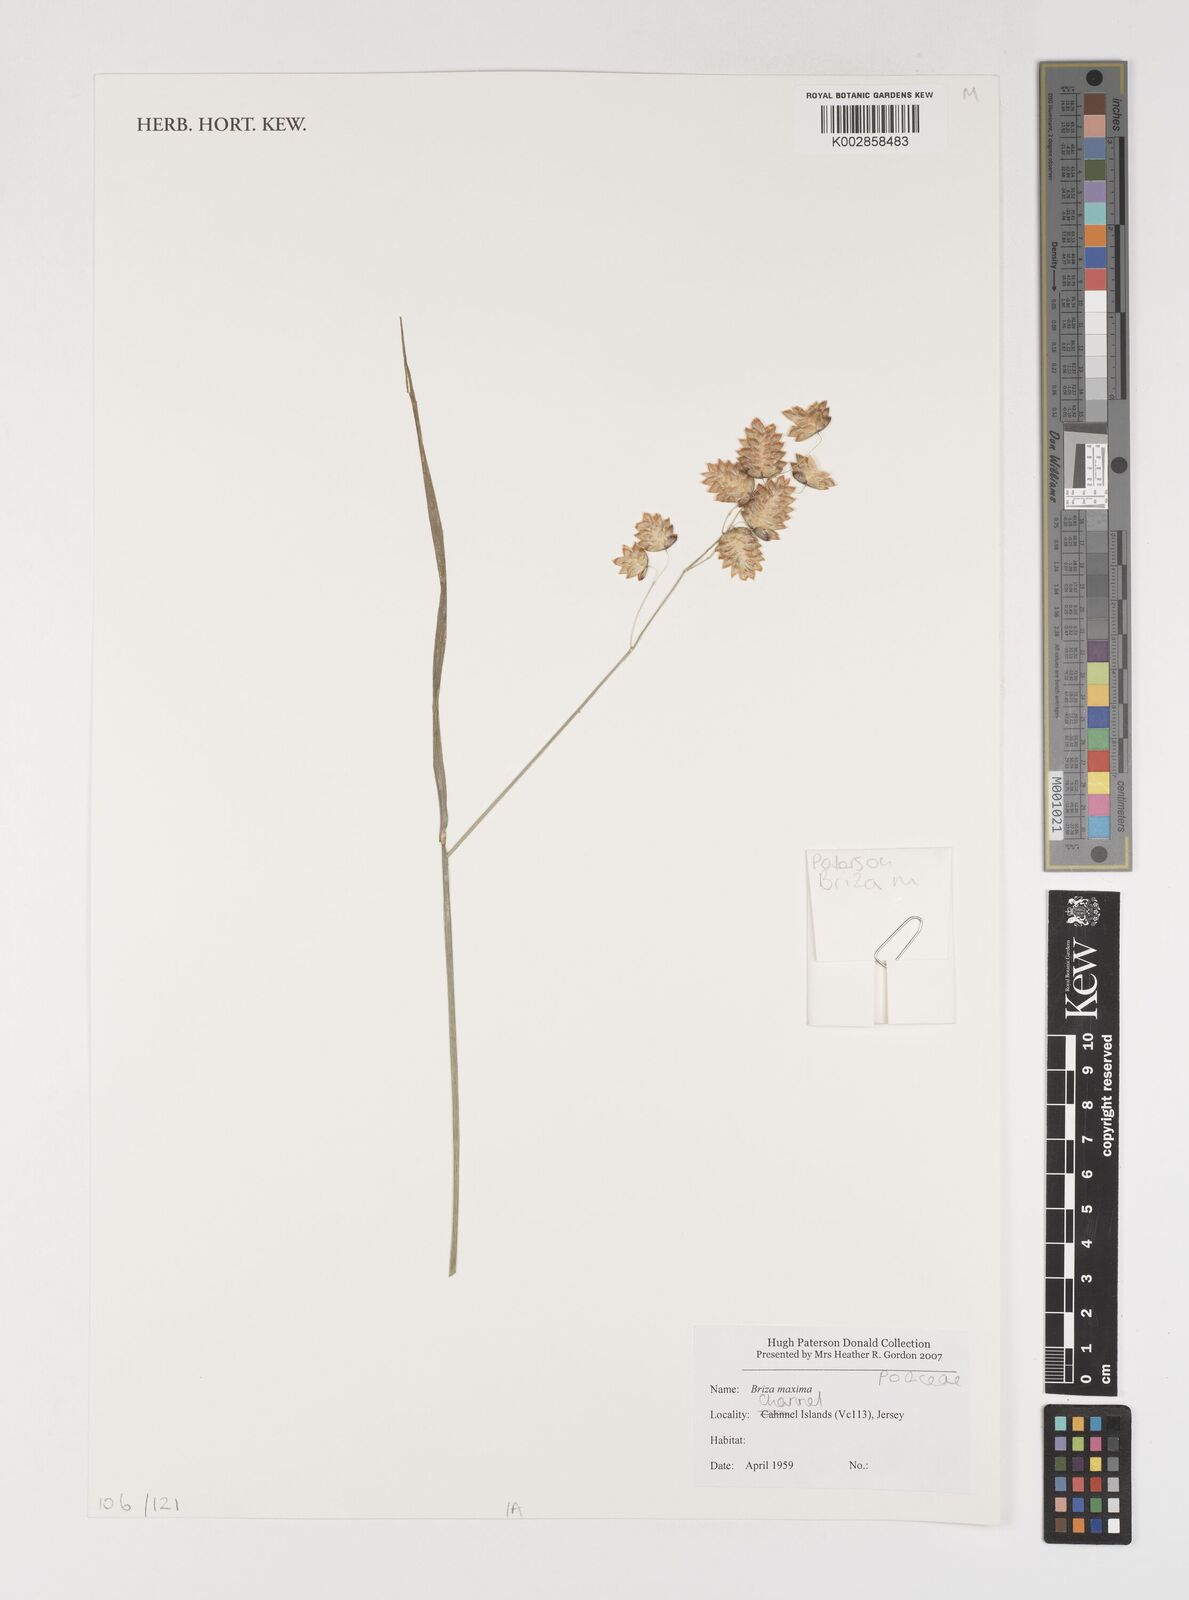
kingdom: Plantae
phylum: Tracheophyta
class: Liliopsida
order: Poales
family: Poaceae
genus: Briza
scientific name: Briza maxima
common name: Big quakinggrass
